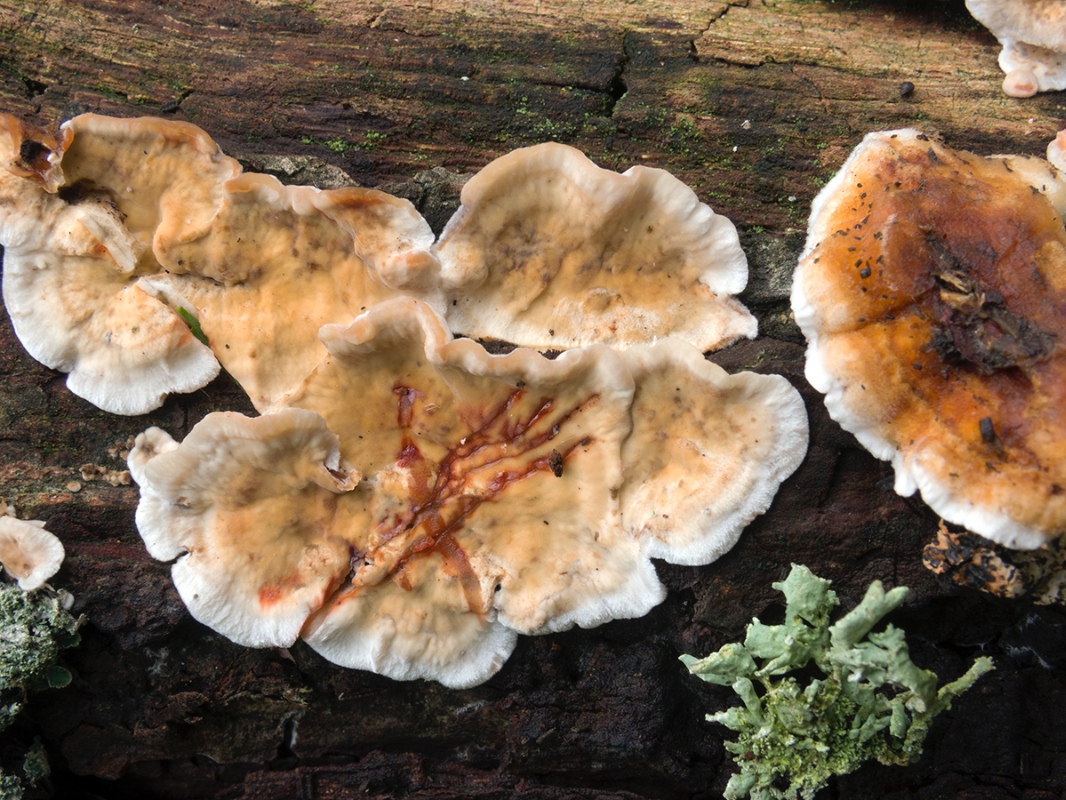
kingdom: Fungi
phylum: Basidiomycota
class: Agaricomycetes
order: Russulales
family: Stereaceae
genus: Stereum
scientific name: Stereum gausapatum
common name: tynd lædersvamp
